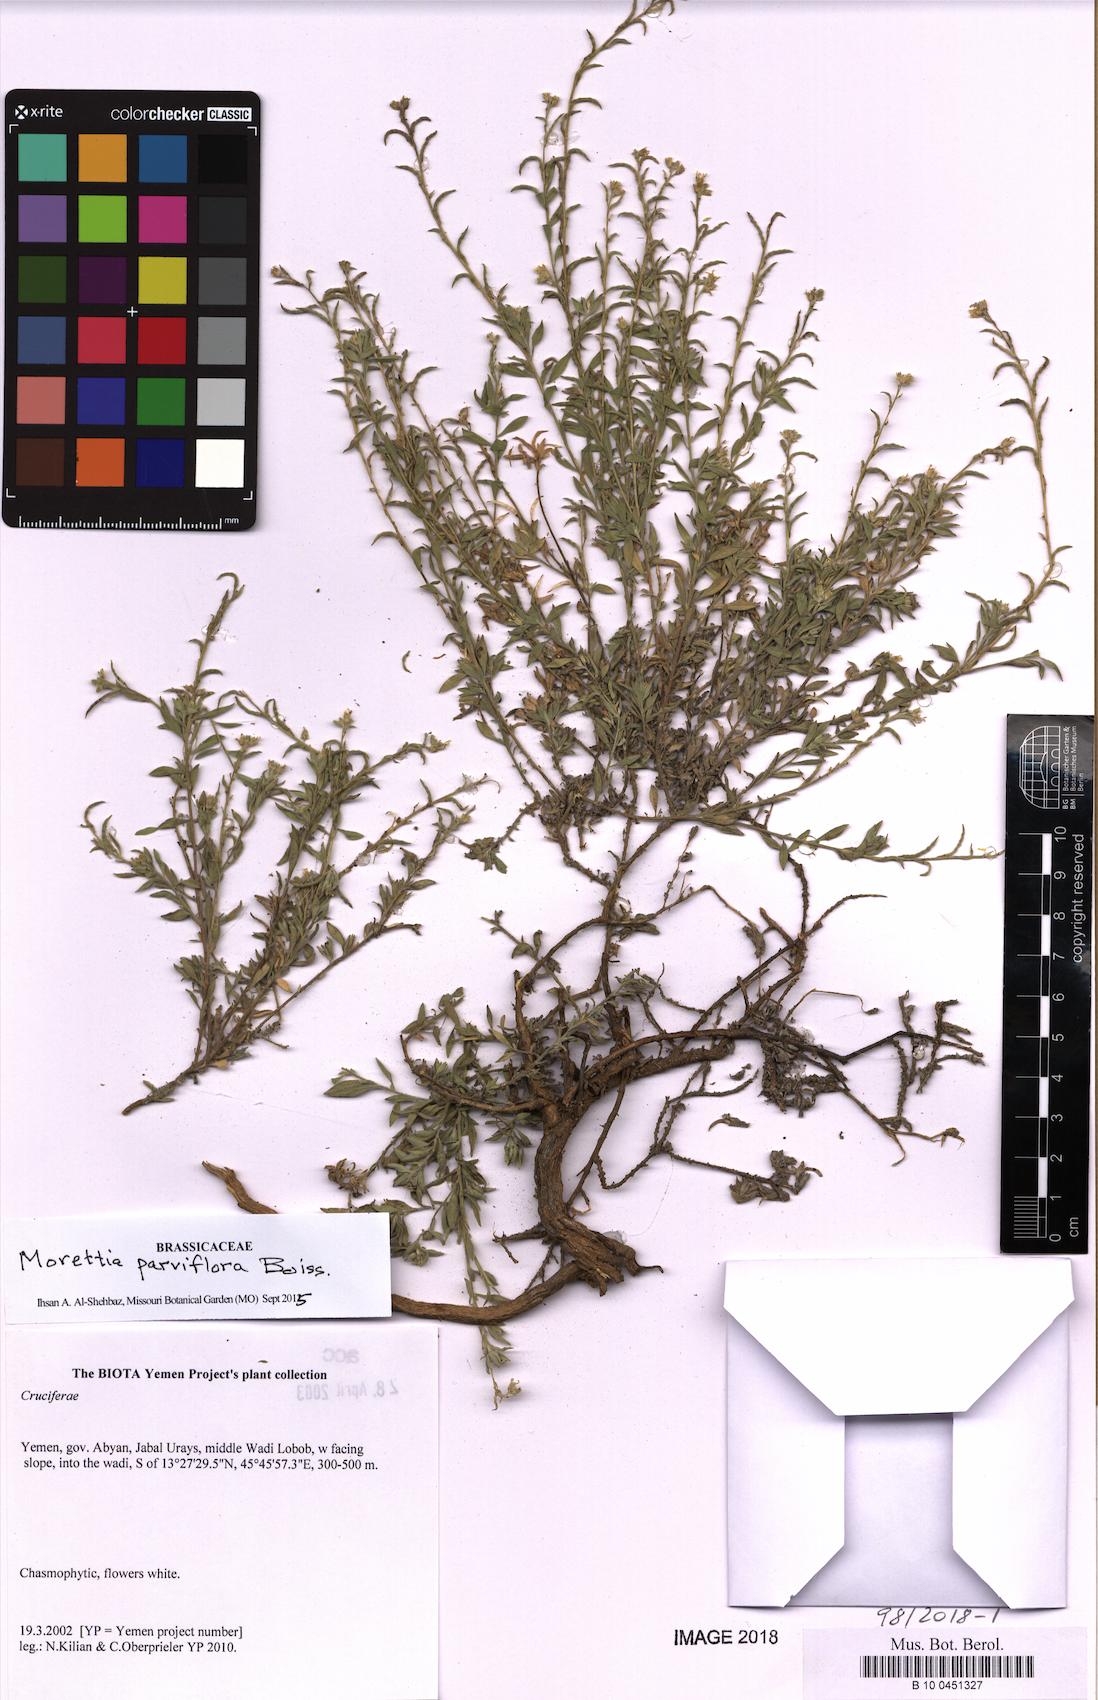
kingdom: Plantae
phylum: Tracheophyta
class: Magnoliopsida
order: Brassicales
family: Brassicaceae
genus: Morettia
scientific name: Morettia kilianii
